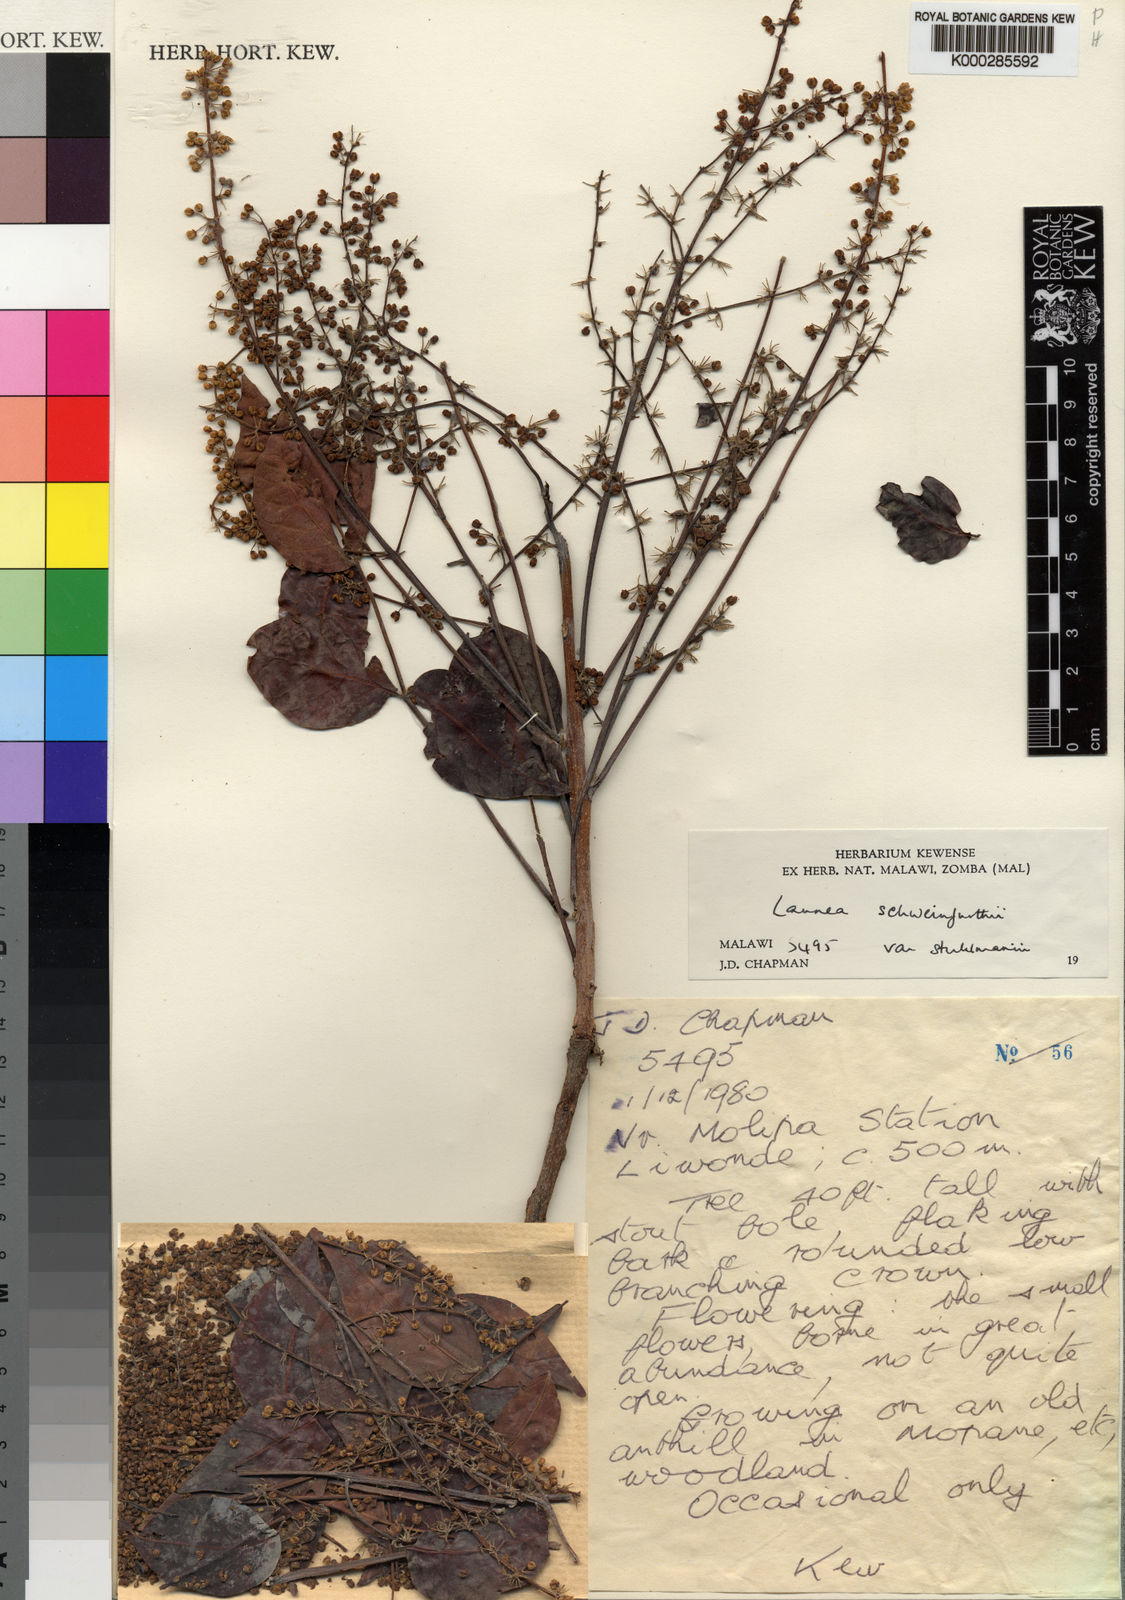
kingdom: Plantae
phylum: Tracheophyta
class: Magnoliopsida
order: Sapindales
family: Anacardiaceae
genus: Lannea
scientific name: Lannea schweinfurthii
